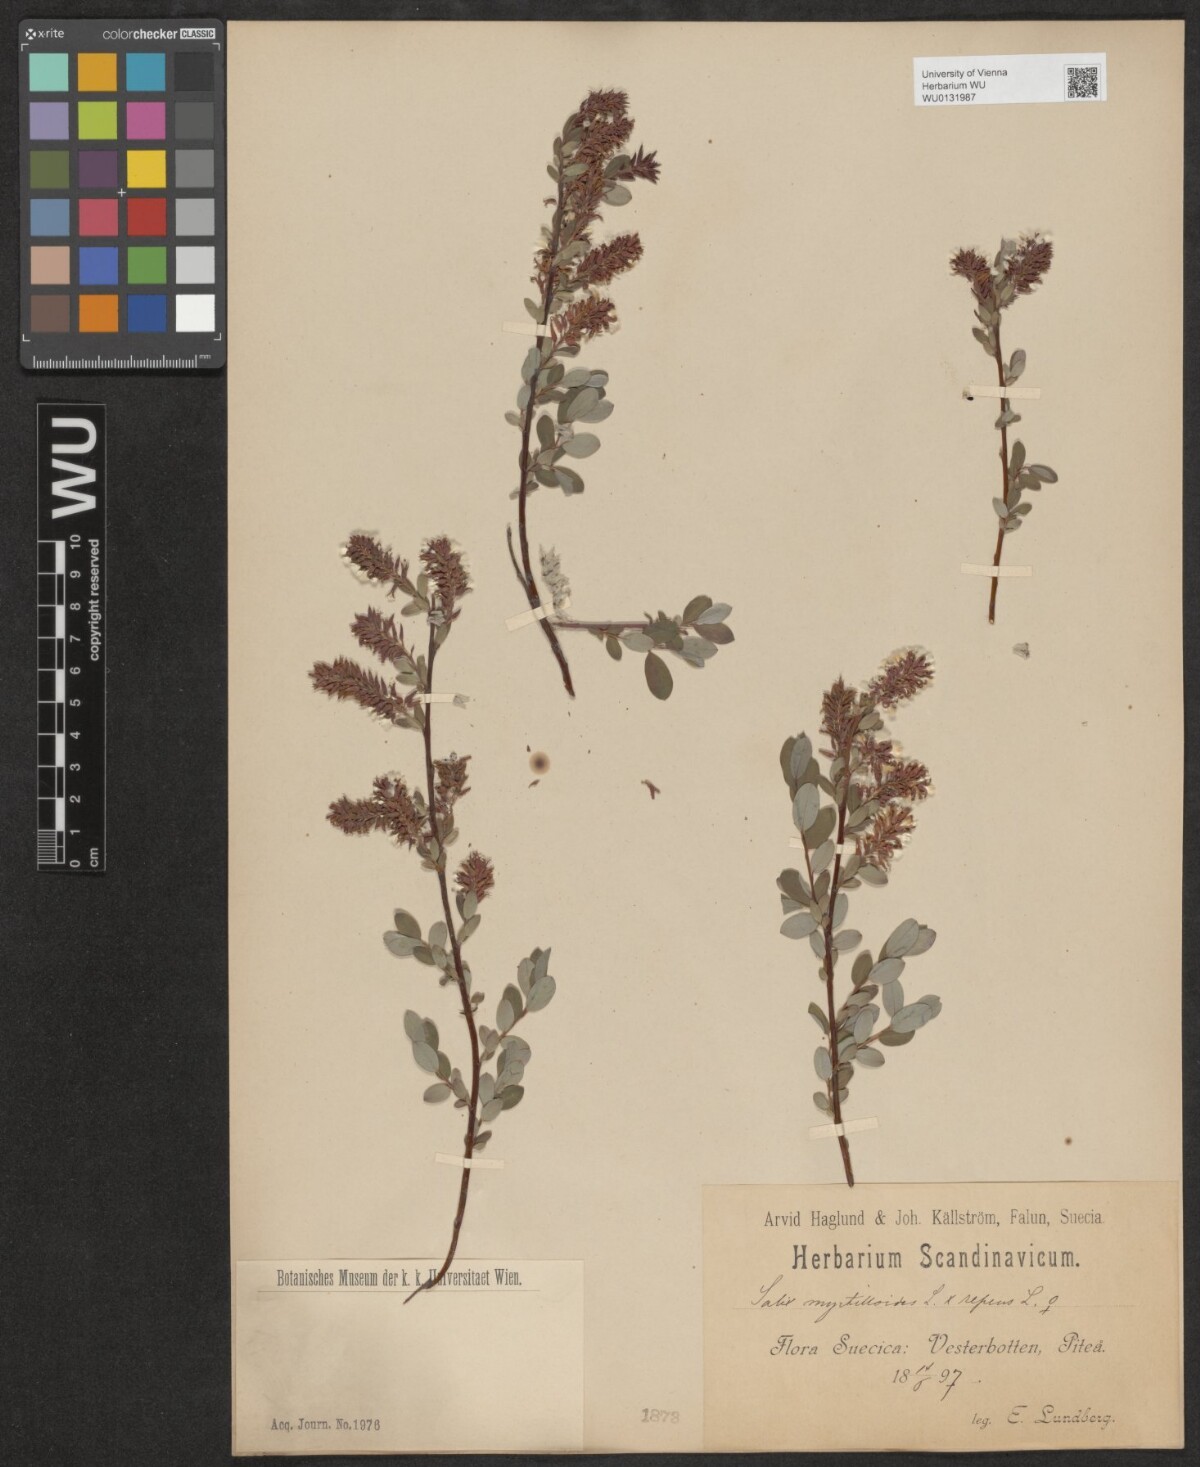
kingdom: Plantae
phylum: Tracheophyta
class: Magnoliopsida
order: Malpighiales
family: Salicaceae
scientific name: Salicaceae
